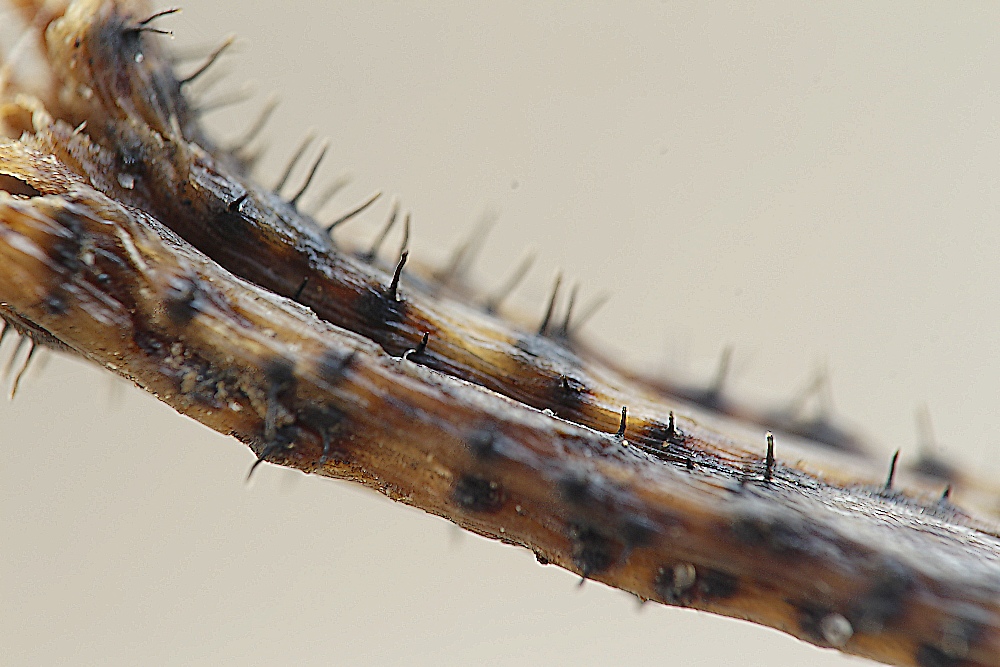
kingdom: Fungi
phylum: Ascomycota
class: Sordariomycetes
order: Diaporthales
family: Gnomoniaceae
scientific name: Gnomoniaceae
